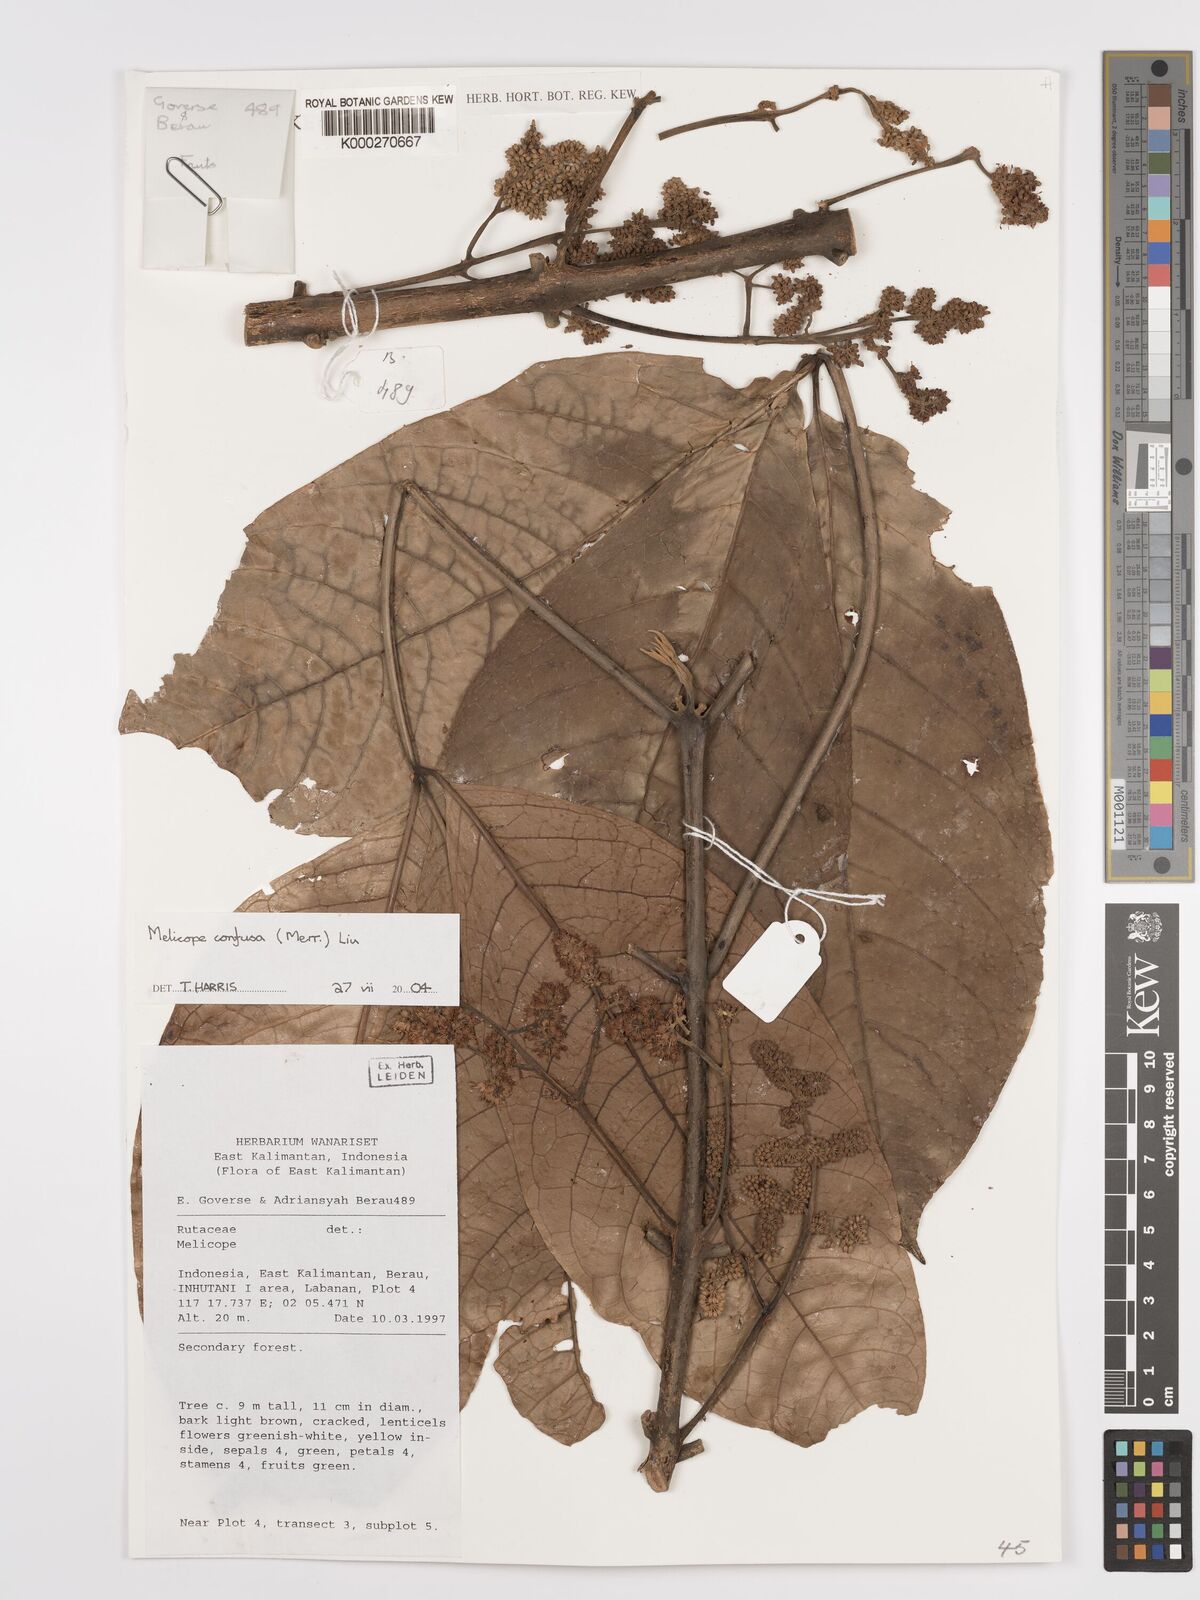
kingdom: Plantae
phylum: Tracheophyta
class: Magnoliopsida
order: Sapindales
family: Rutaceae
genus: Melicope
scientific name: Melicope frutescens
